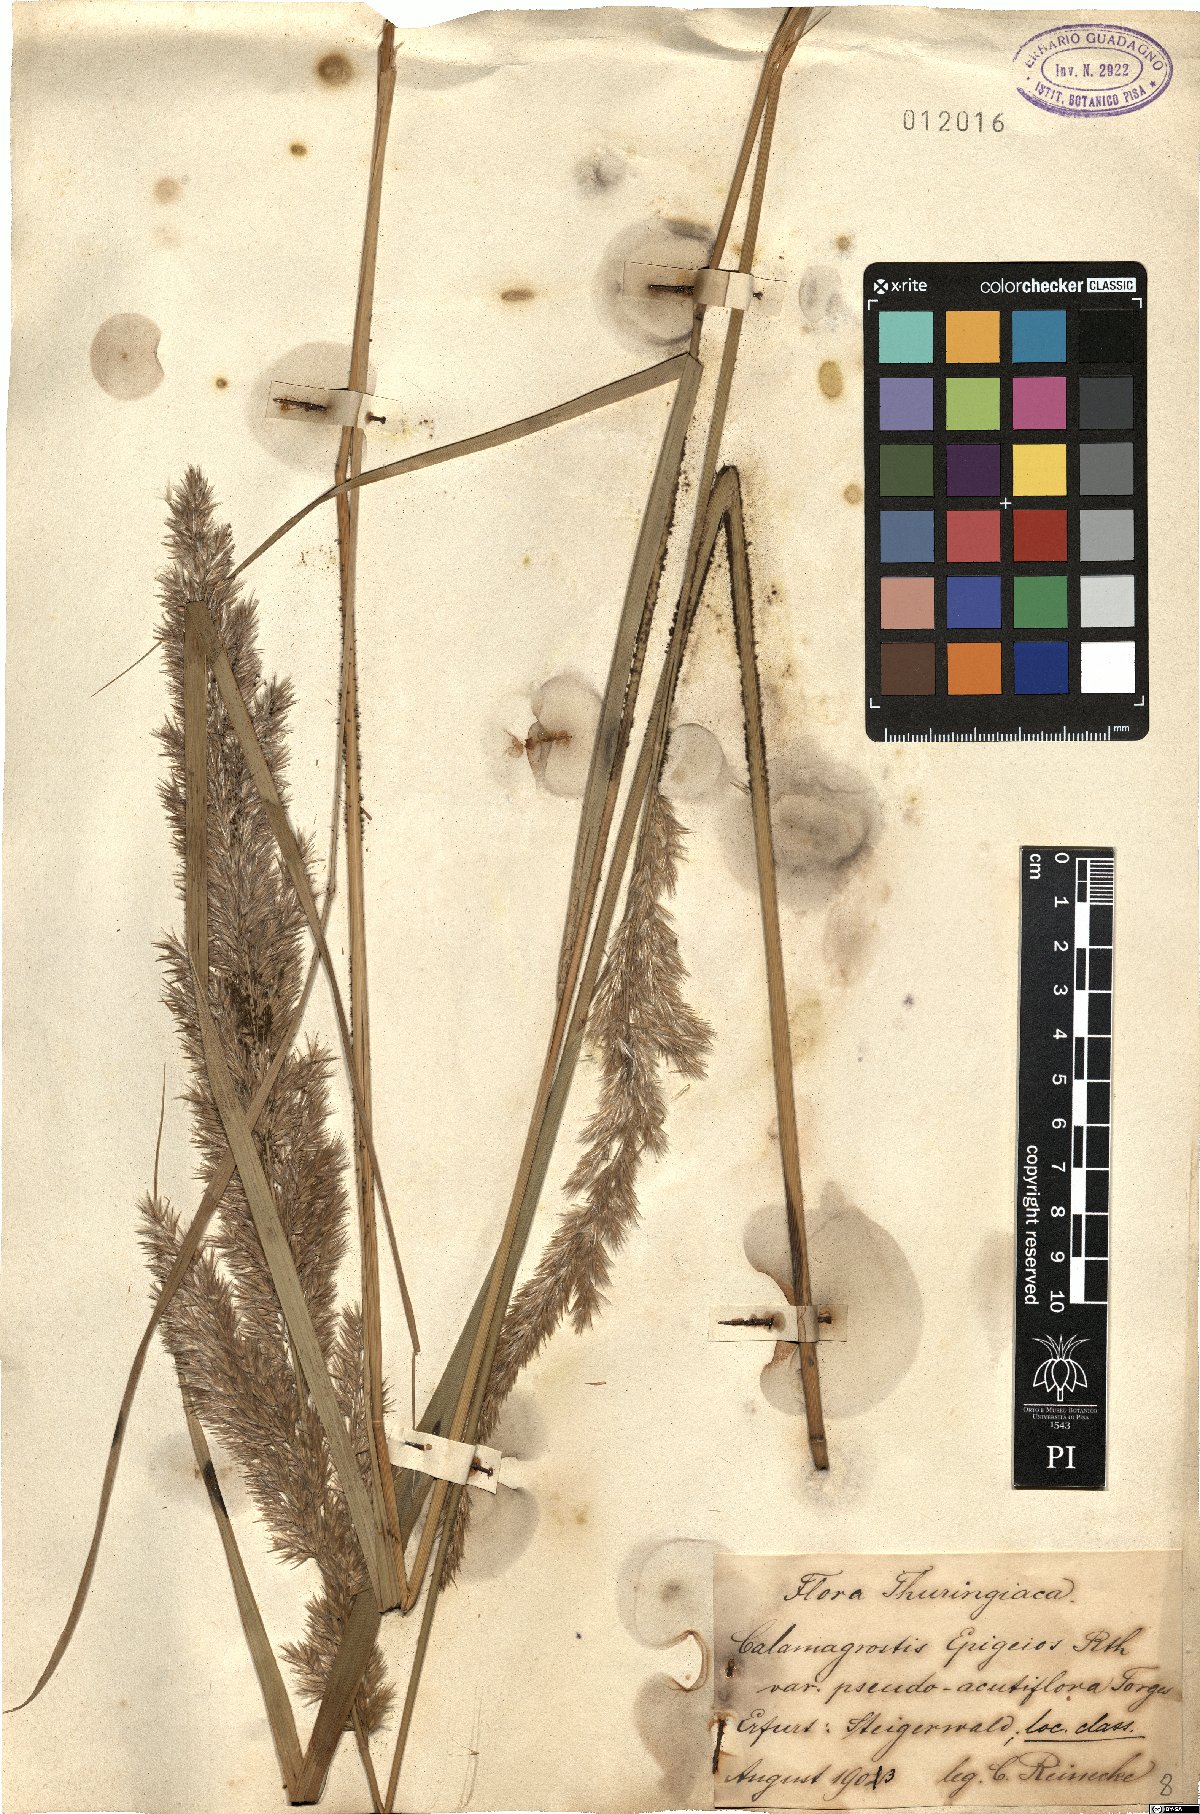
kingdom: Plantae
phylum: Tracheophyta
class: Liliopsida
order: Poales
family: Poaceae
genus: Calamagrostis
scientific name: Calamagrostis epigejos
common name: Wood small-reed
